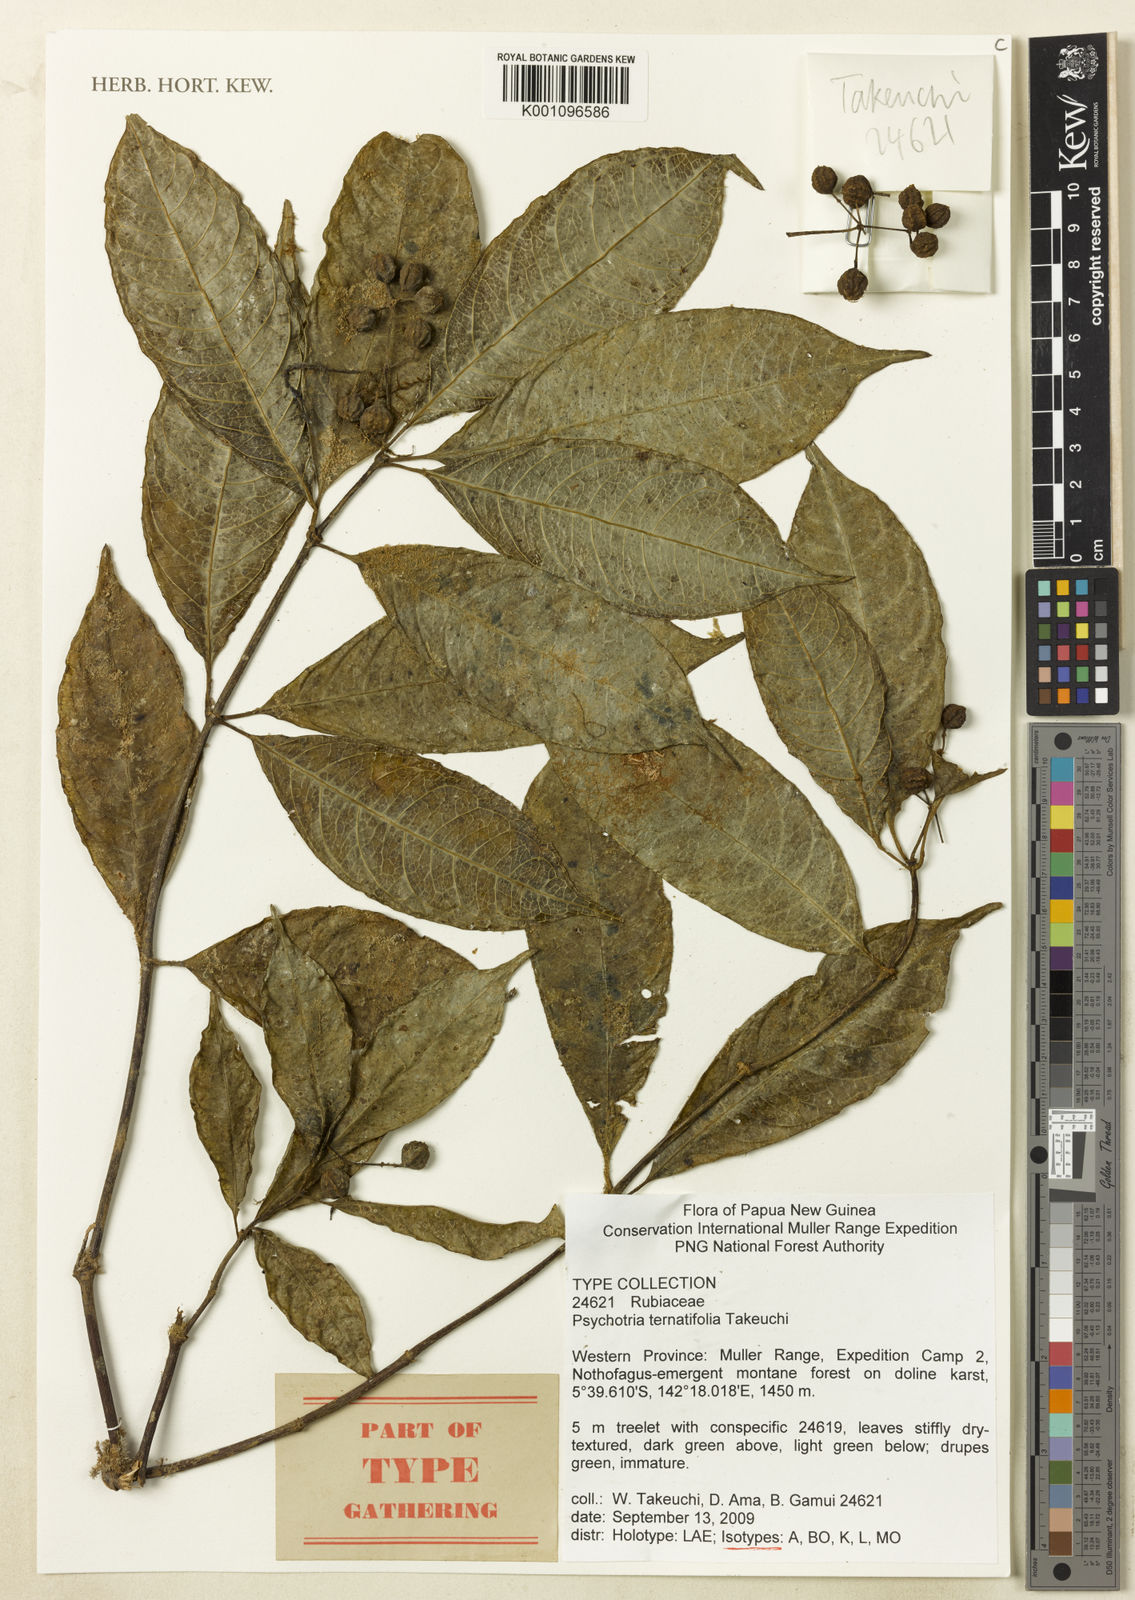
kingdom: Plantae
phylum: Tracheophyta
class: Magnoliopsida
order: Gentianales
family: Rubiaceae
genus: Psychotria
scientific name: Psychotria ternatifolia
